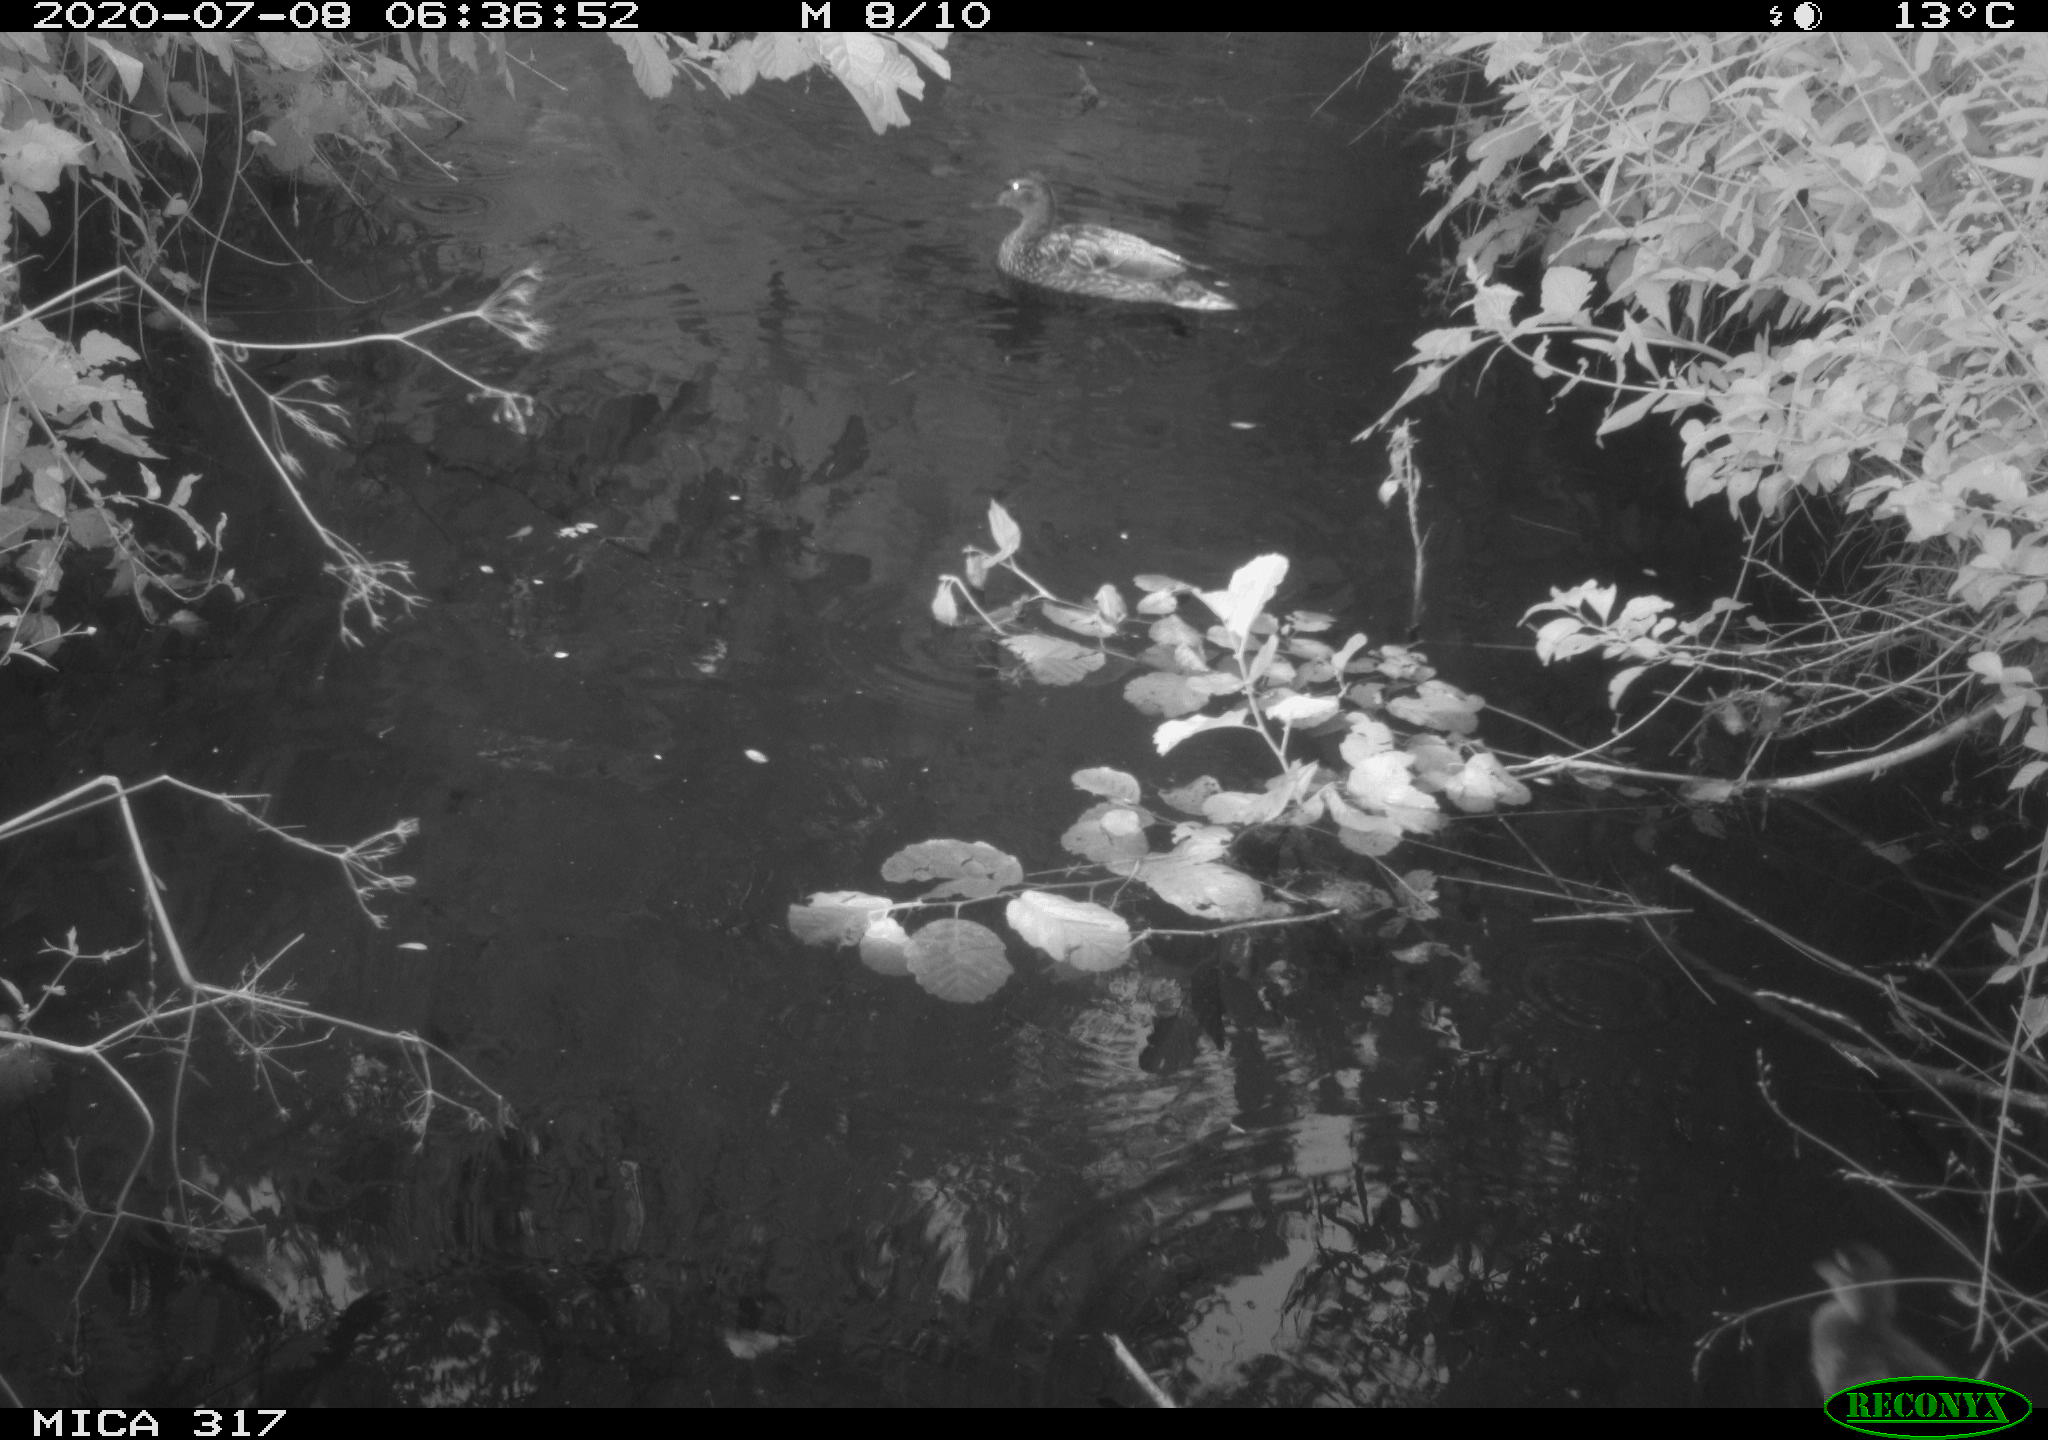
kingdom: Animalia
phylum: Chordata
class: Aves
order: Anseriformes
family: Anatidae
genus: Anas
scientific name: Anas platyrhynchos
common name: Mallard
